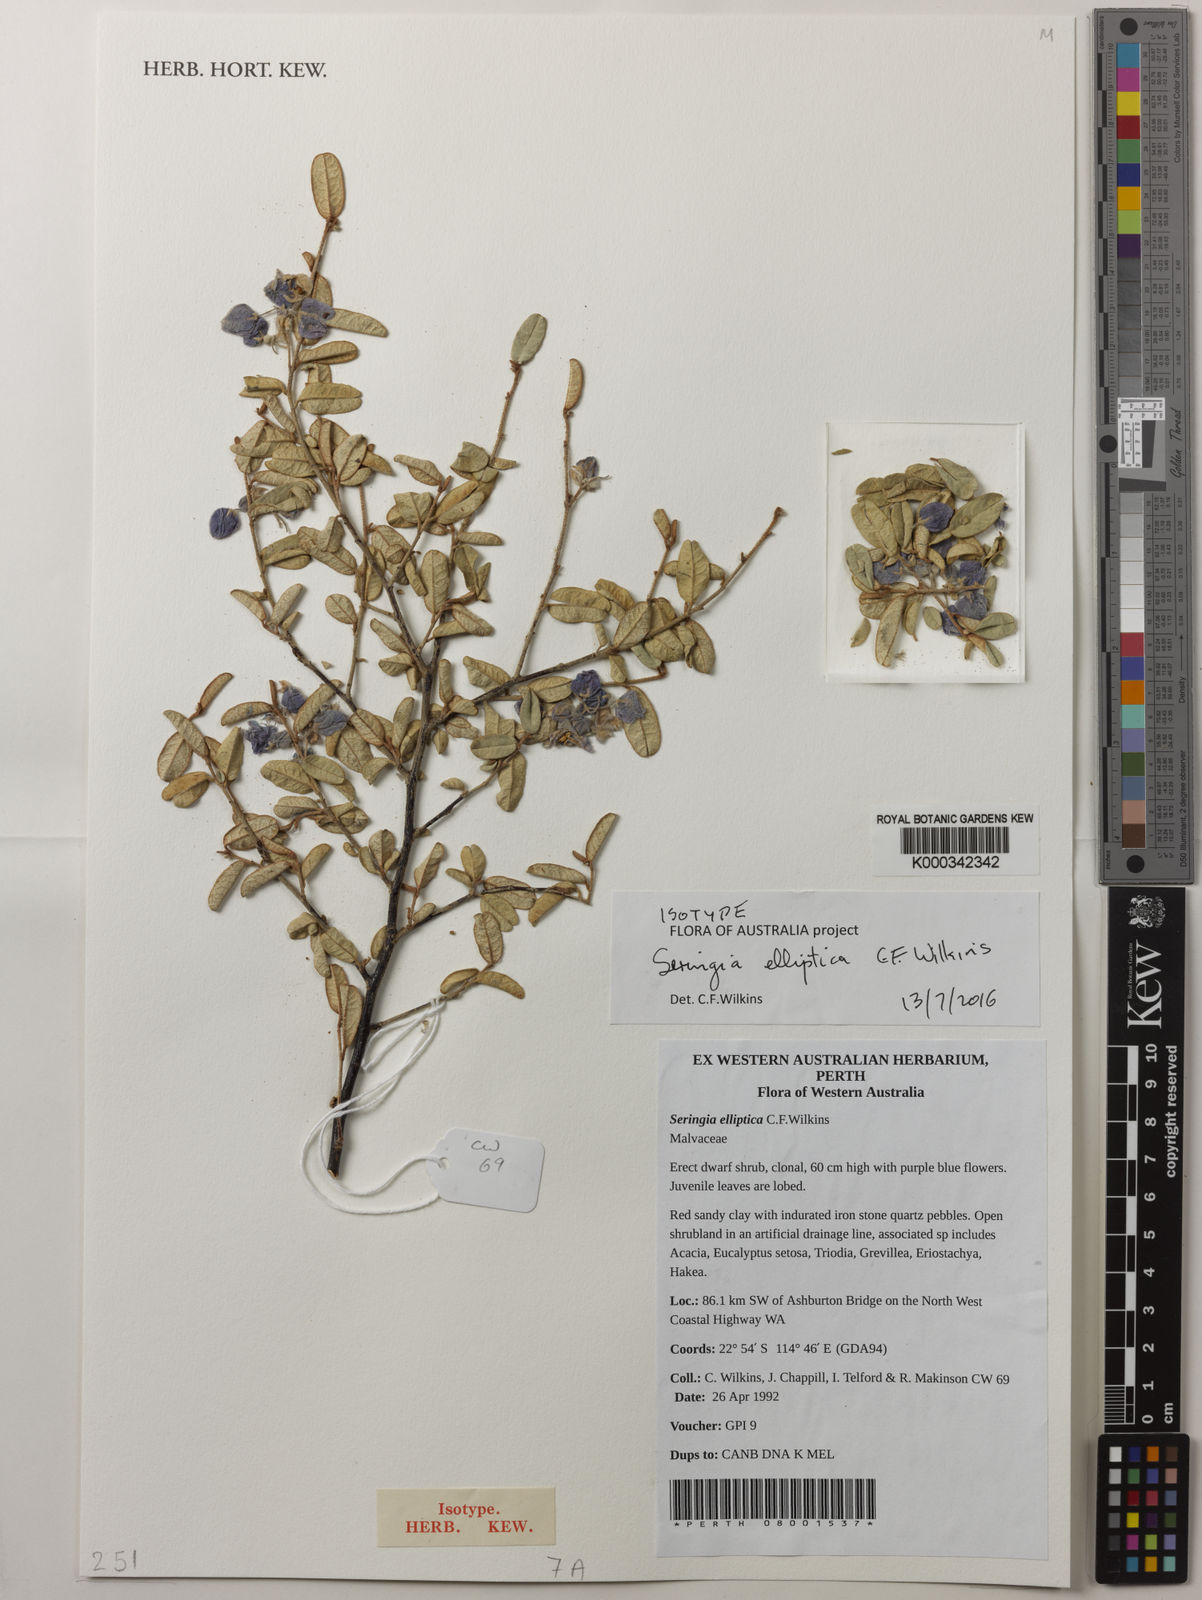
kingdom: Plantae
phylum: Tracheophyta
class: Magnoliopsida
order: Malvales
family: Malvaceae
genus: Seringia
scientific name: Seringia elliptica
